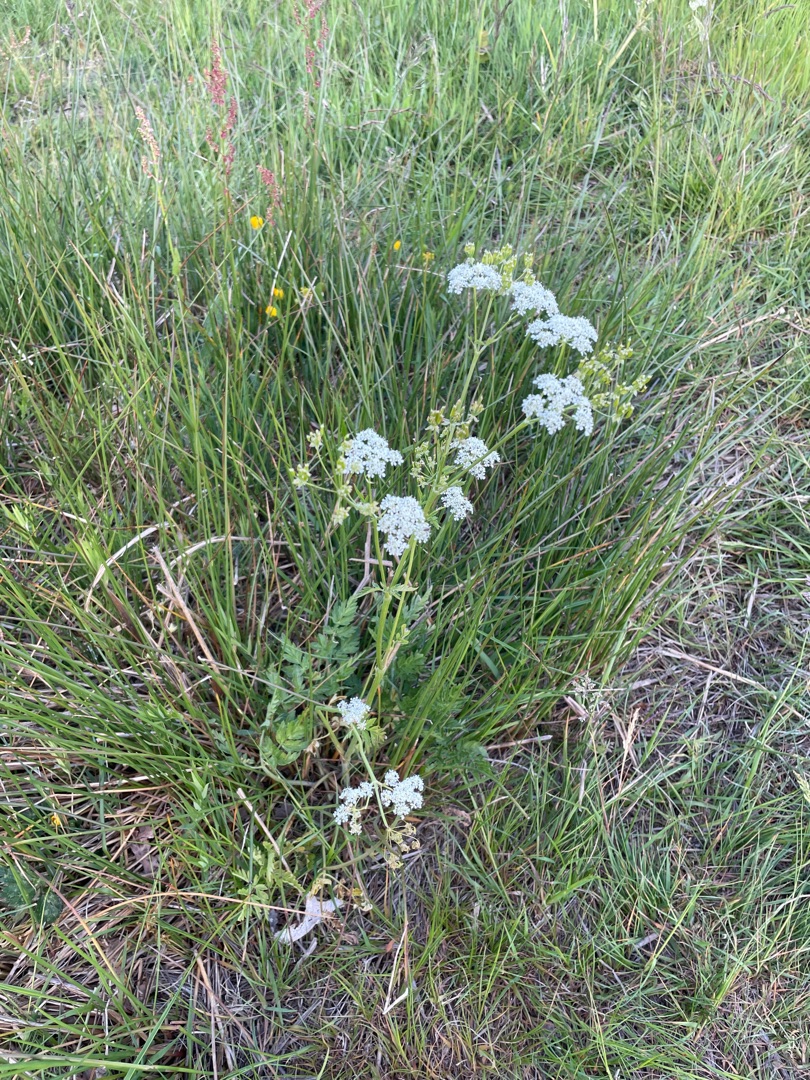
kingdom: Plantae
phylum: Tracheophyta
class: Magnoliopsida
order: Apiales
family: Apiaceae
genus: Anthriscus
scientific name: Anthriscus sylvestris
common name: Vild kørvel
